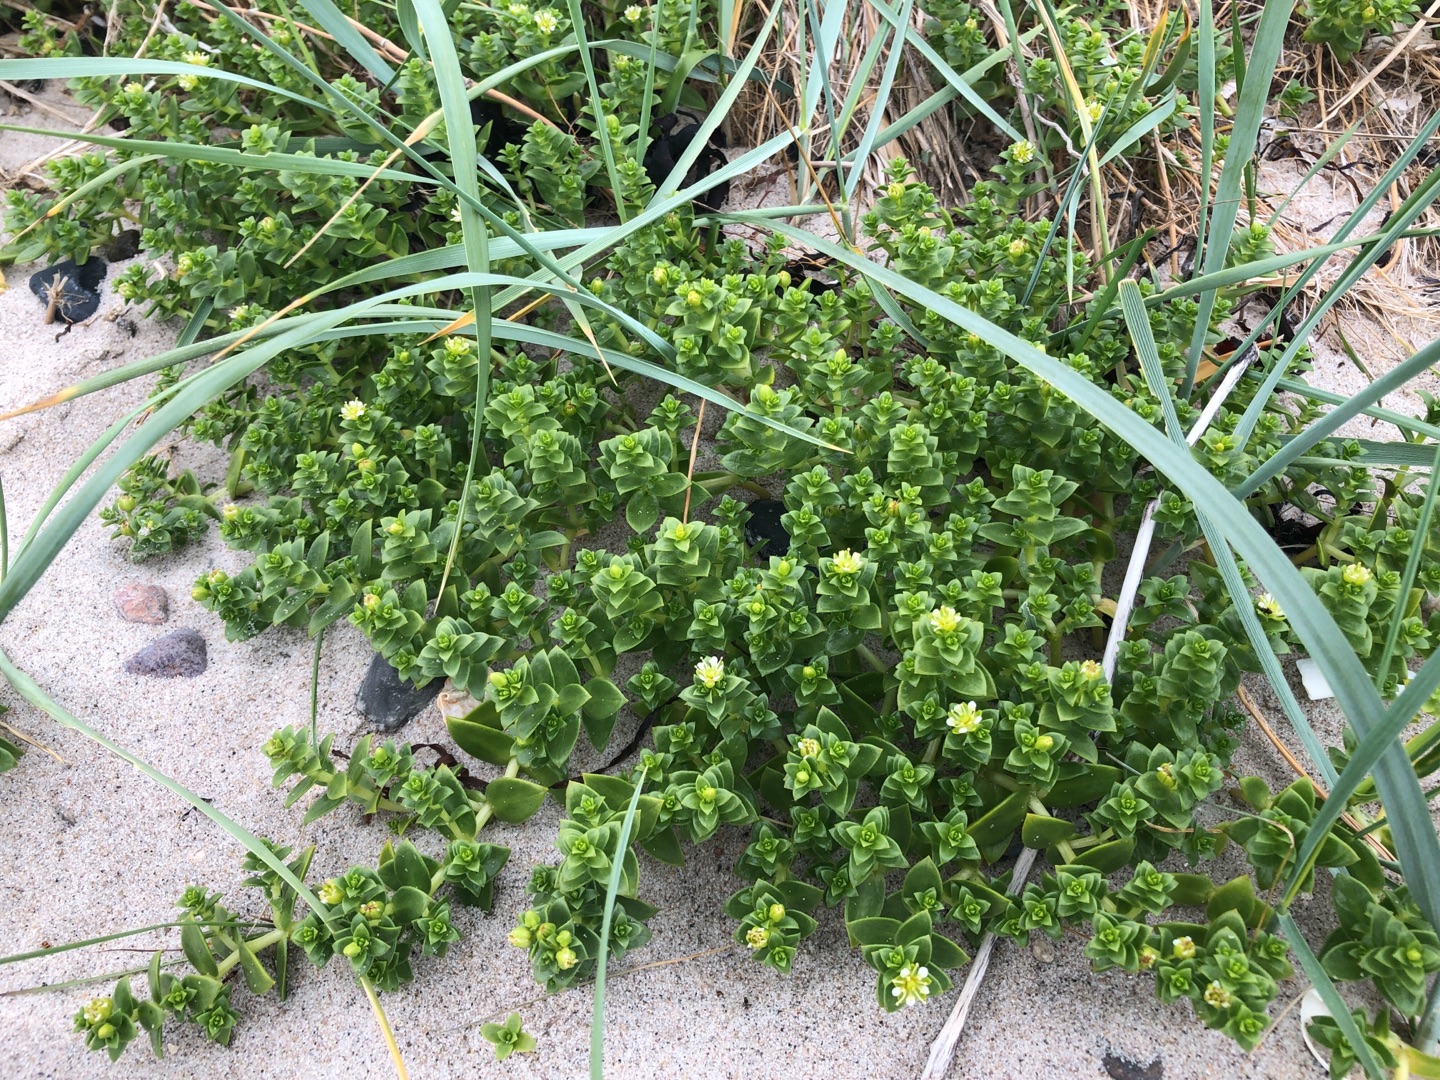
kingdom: Plantae
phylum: Tracheophyta
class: Magnoliopsida
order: Caryophyllales
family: Caryophyllaceae
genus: Honckenya
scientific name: Honckenya peploides
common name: Strandarve
